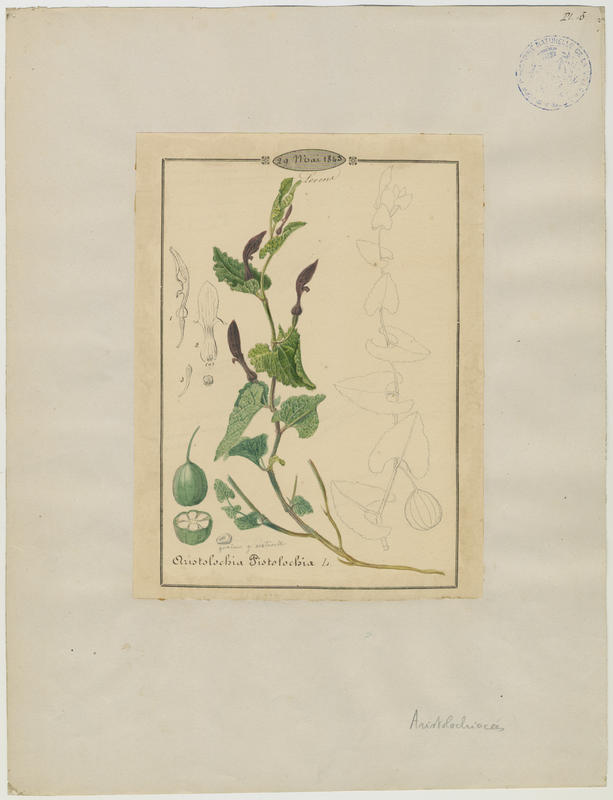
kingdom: Plantae
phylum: Tracheophyta
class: Magnoliopsida
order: Piperales
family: Aristolochiaceae
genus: Aristolochia
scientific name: Aristolochia pistolochia
